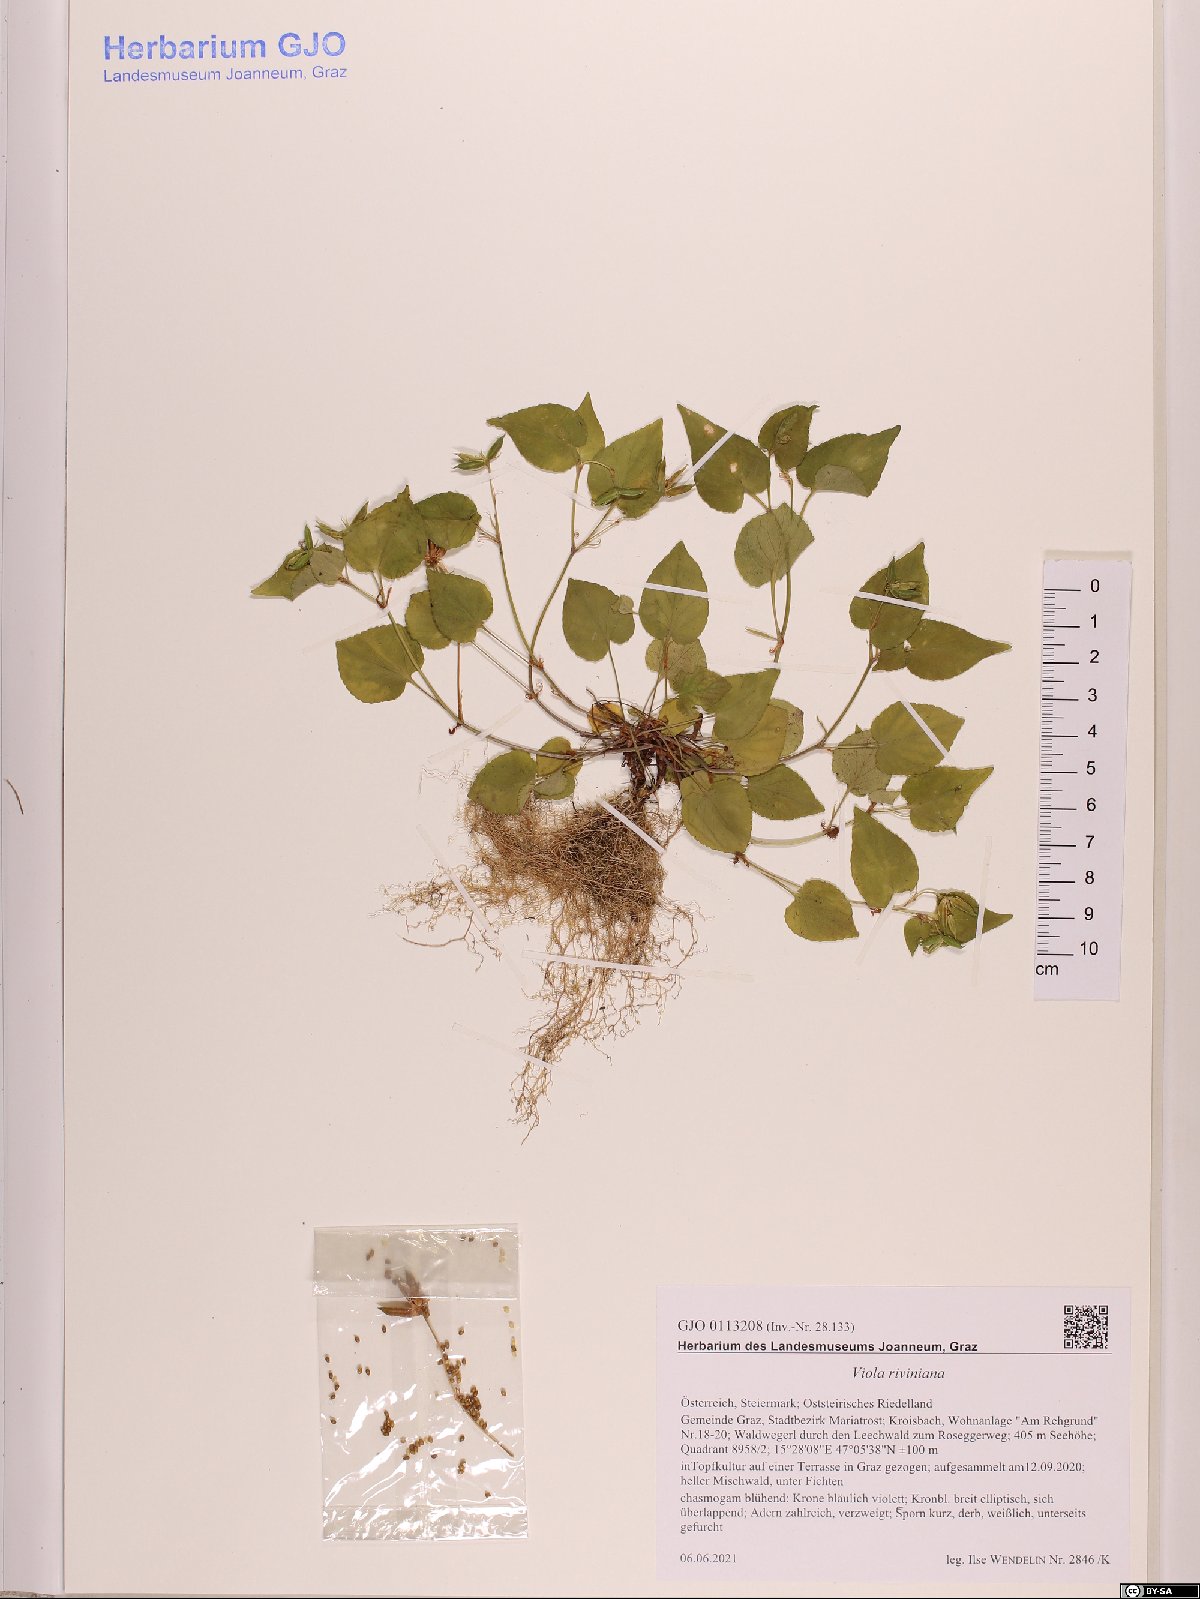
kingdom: Plantae
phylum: Tracheophyta
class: Magnoliopsida
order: Malpighiales
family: Violaceae
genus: Viola
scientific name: Viola riviniana
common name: Common dog-violet
